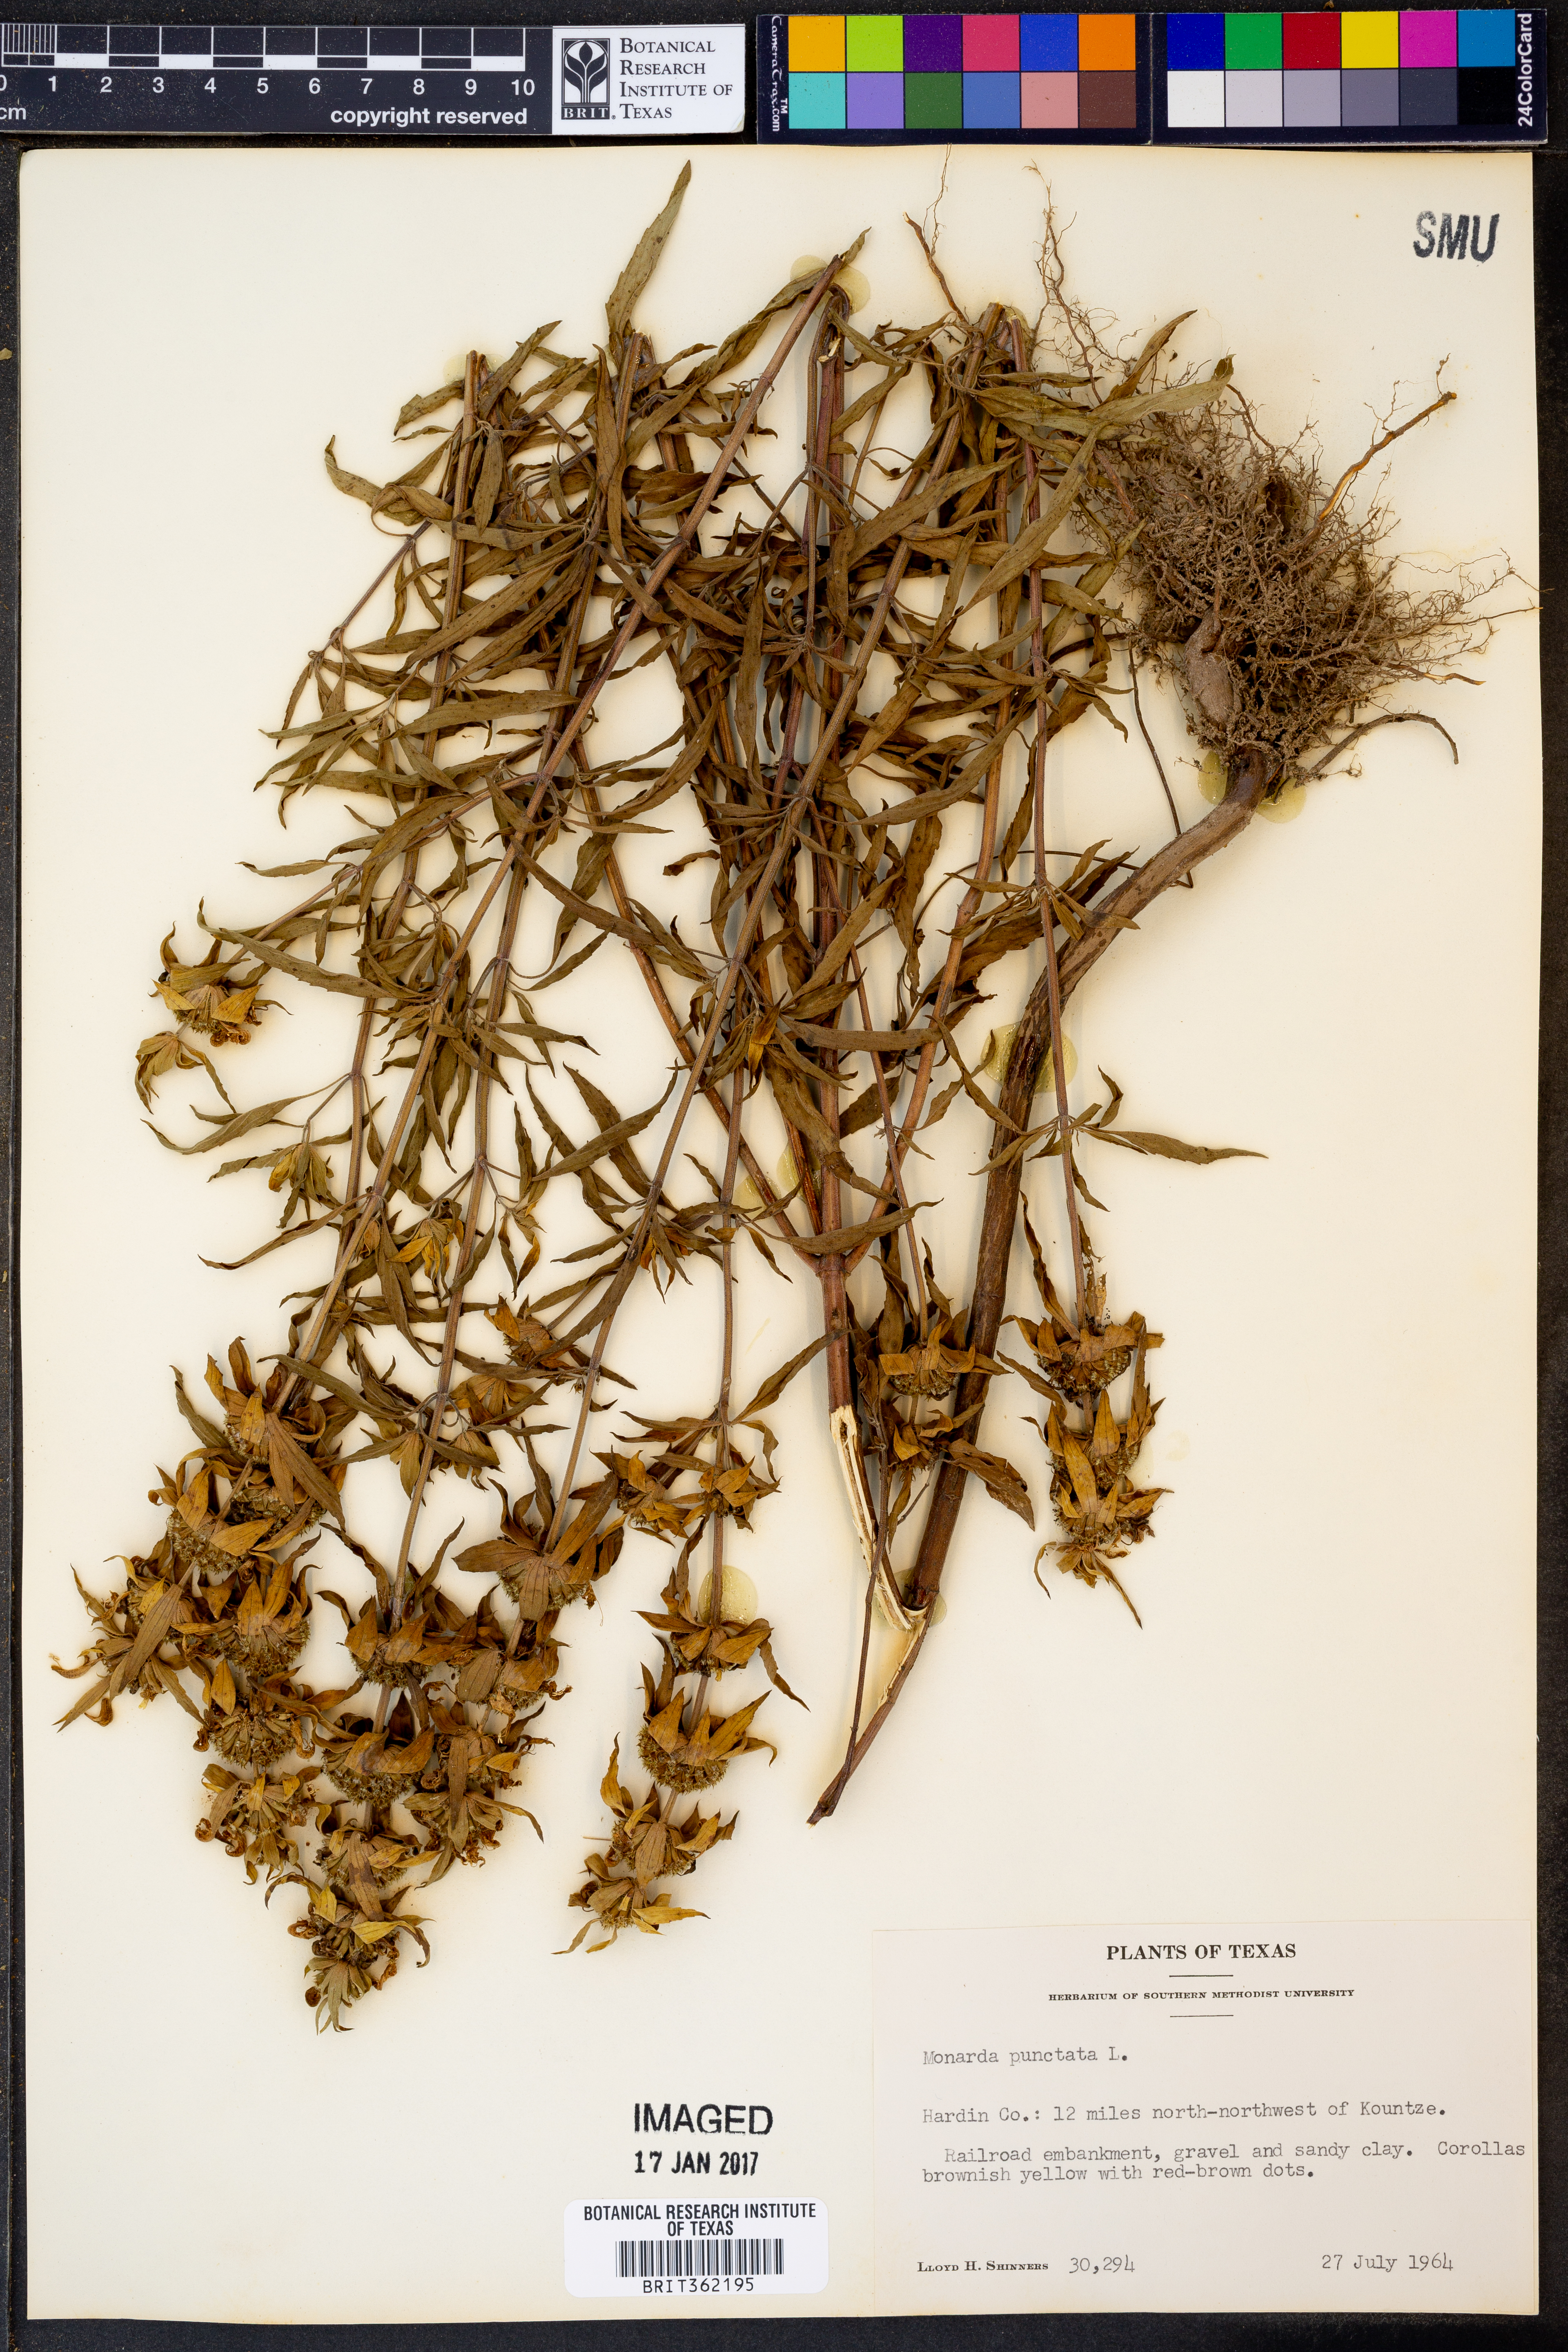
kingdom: Plantae
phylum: Tracheophyta
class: Magnoliopsida
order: Lamiales
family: Lamiaceae
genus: Monarda
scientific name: Monarda punctata
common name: Dotted monarda
